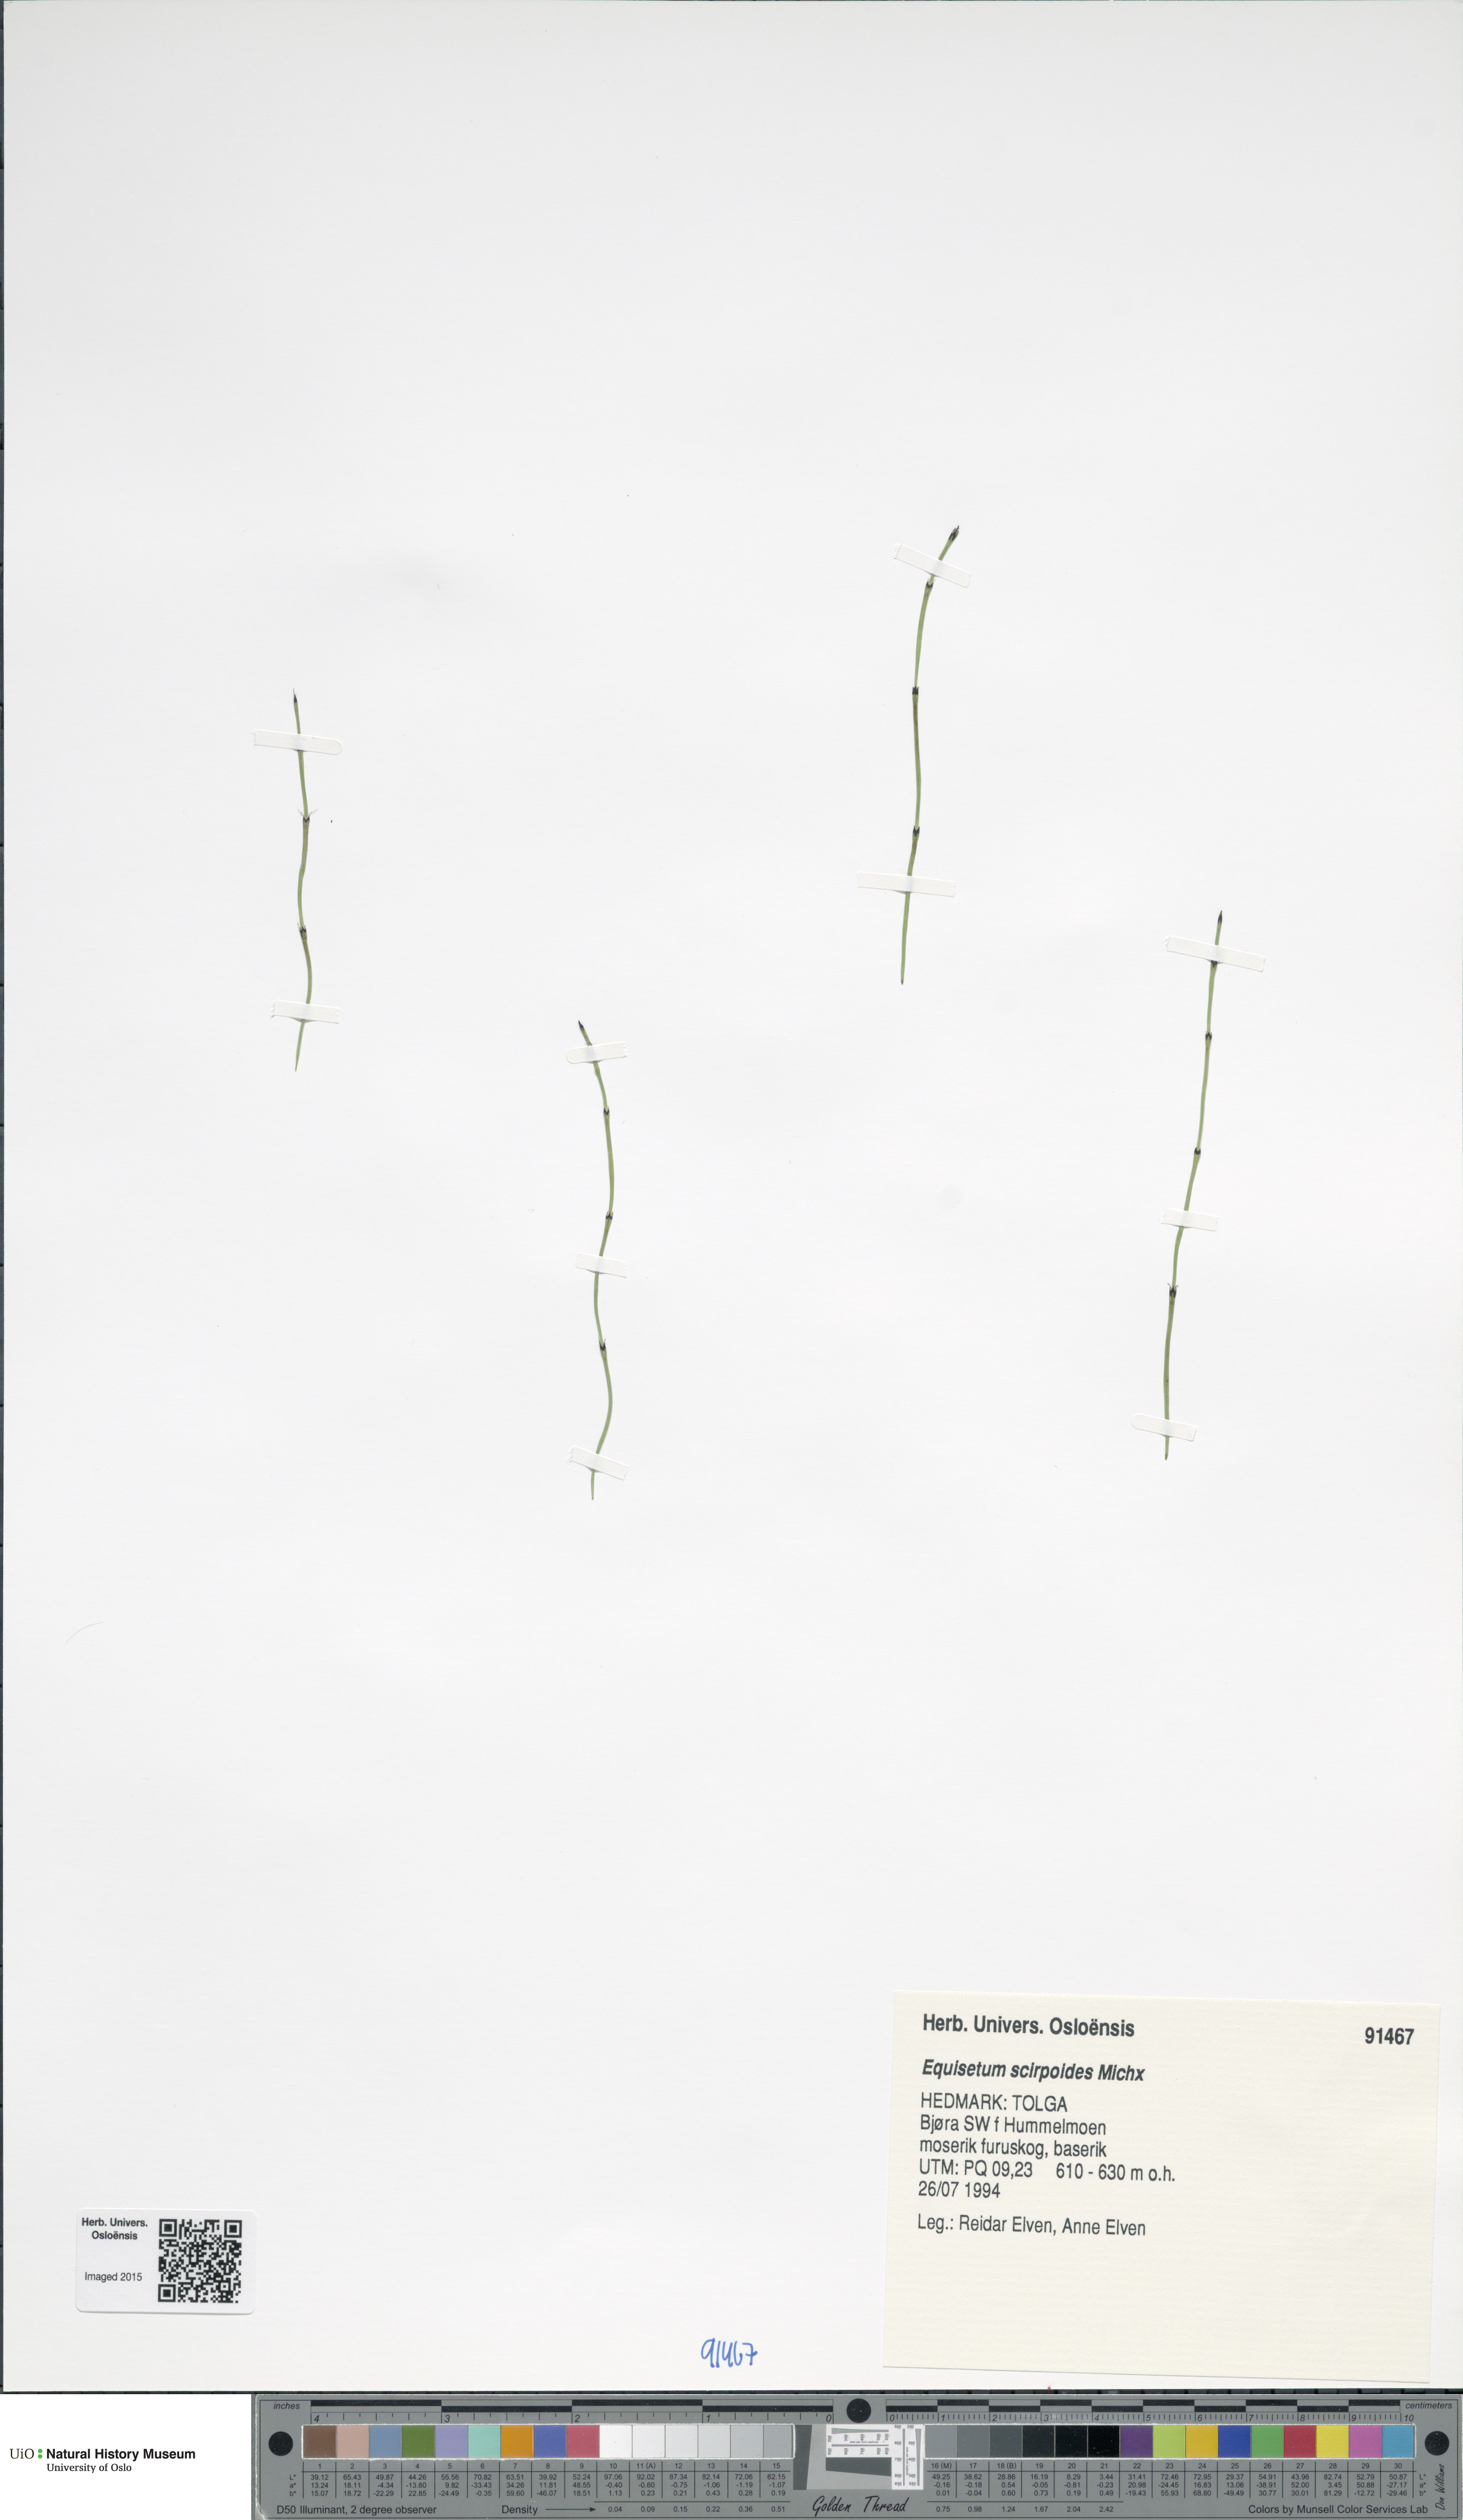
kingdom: Plantae
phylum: Tracheophyta
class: Polypodiopsida
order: Equisetales
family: Equisetaceae
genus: Equisetum
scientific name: Equisetum scirpoides
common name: Delicate horsetail
